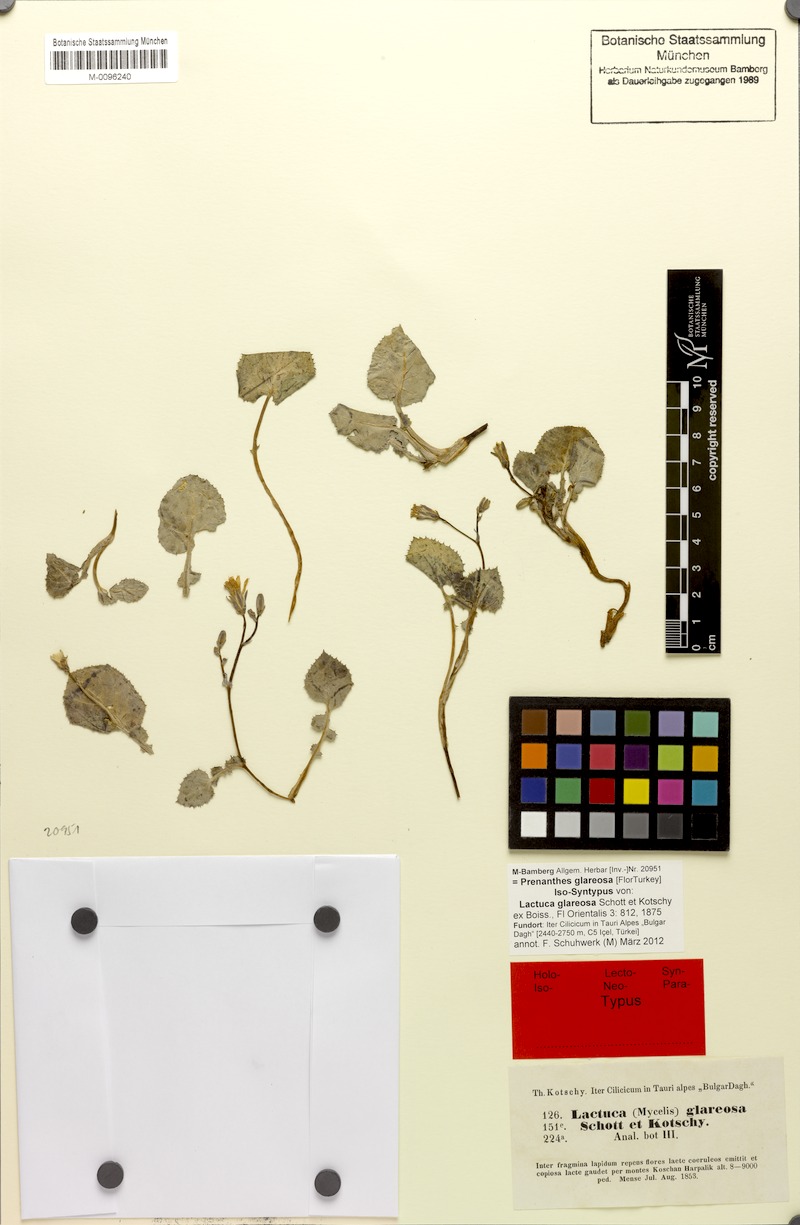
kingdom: Plantae
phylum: Tracheophyta
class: Magnoliopsida
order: Asterales
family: Asteraceae
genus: Lactuca
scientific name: Lactuca glareosa
